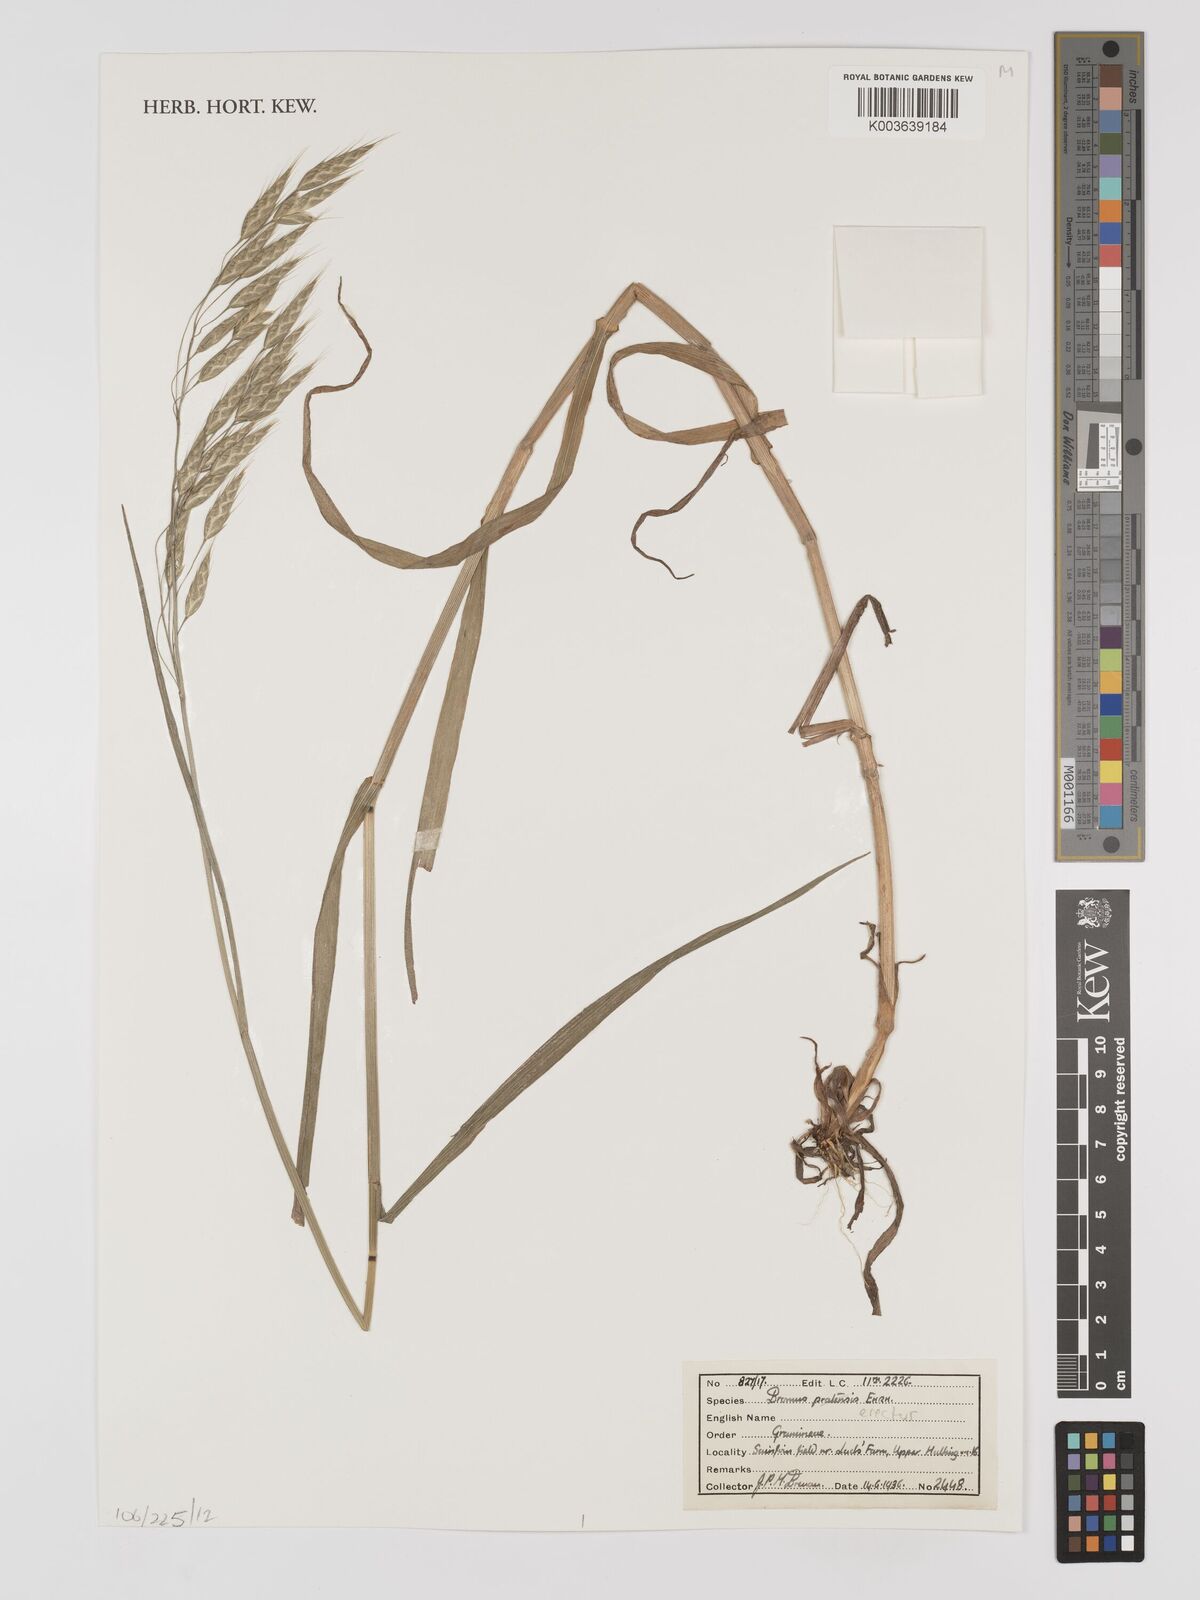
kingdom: Plantae
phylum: Tracheophyta
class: Liliopsida
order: Poales
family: Poaceae
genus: Bromus
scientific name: Bromus erectus
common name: Erect brome
